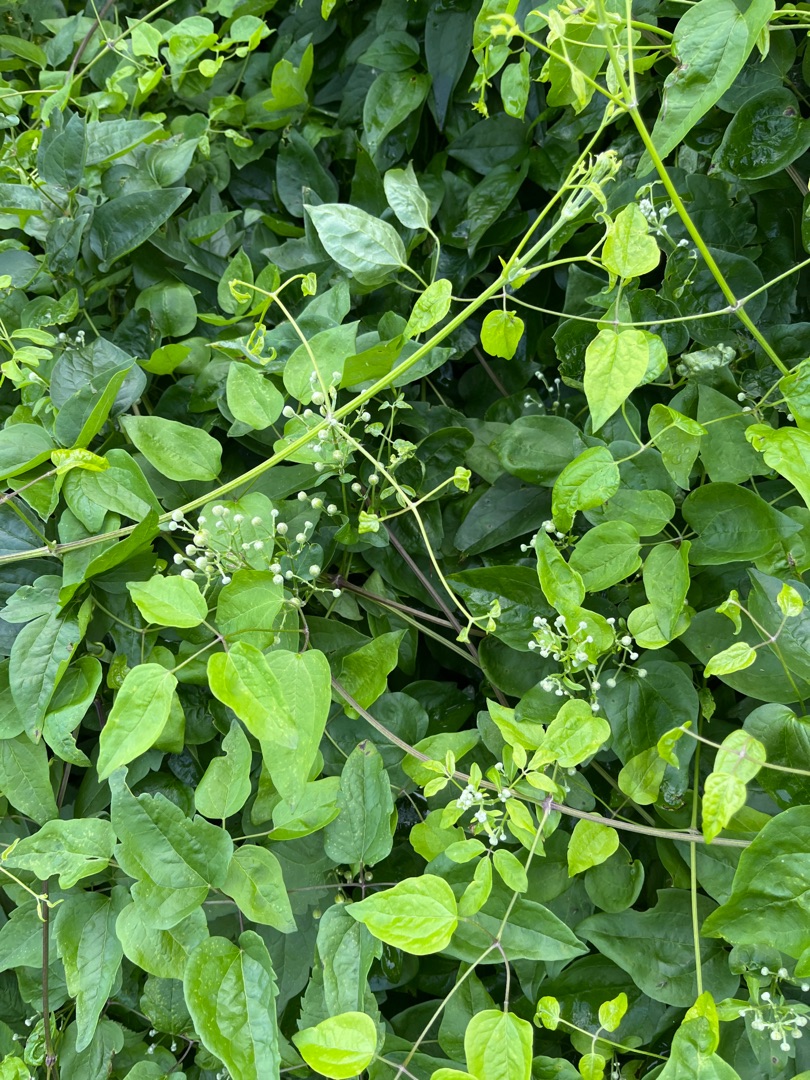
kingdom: Plantae
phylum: Tracheophyta
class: Magnoliopsida
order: Ranunculales
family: Ranunculaceae
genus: Clematis
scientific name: Clematis vitalba
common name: Skovranke
